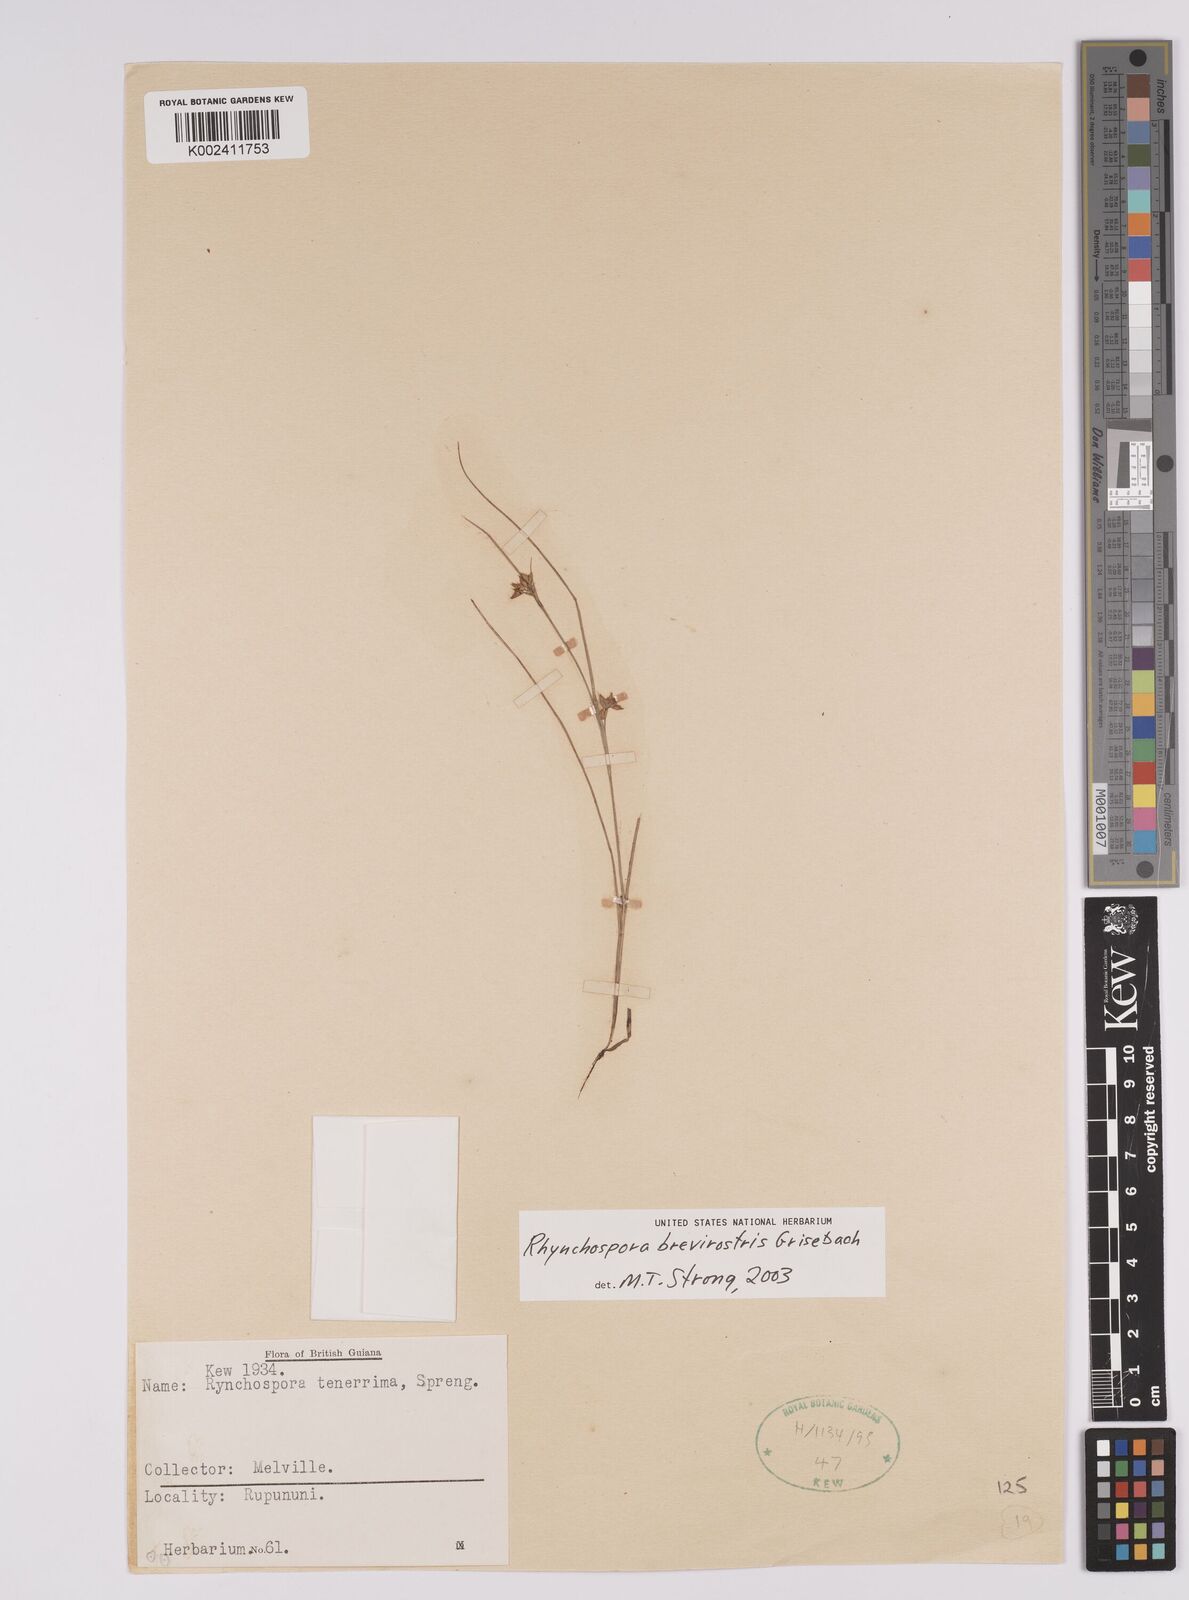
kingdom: Plantae
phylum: Tracheophyta
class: Liliopsida
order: Poales
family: Cyperaceae
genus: Rhynchospora
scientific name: Rhynchospora brevirostris
